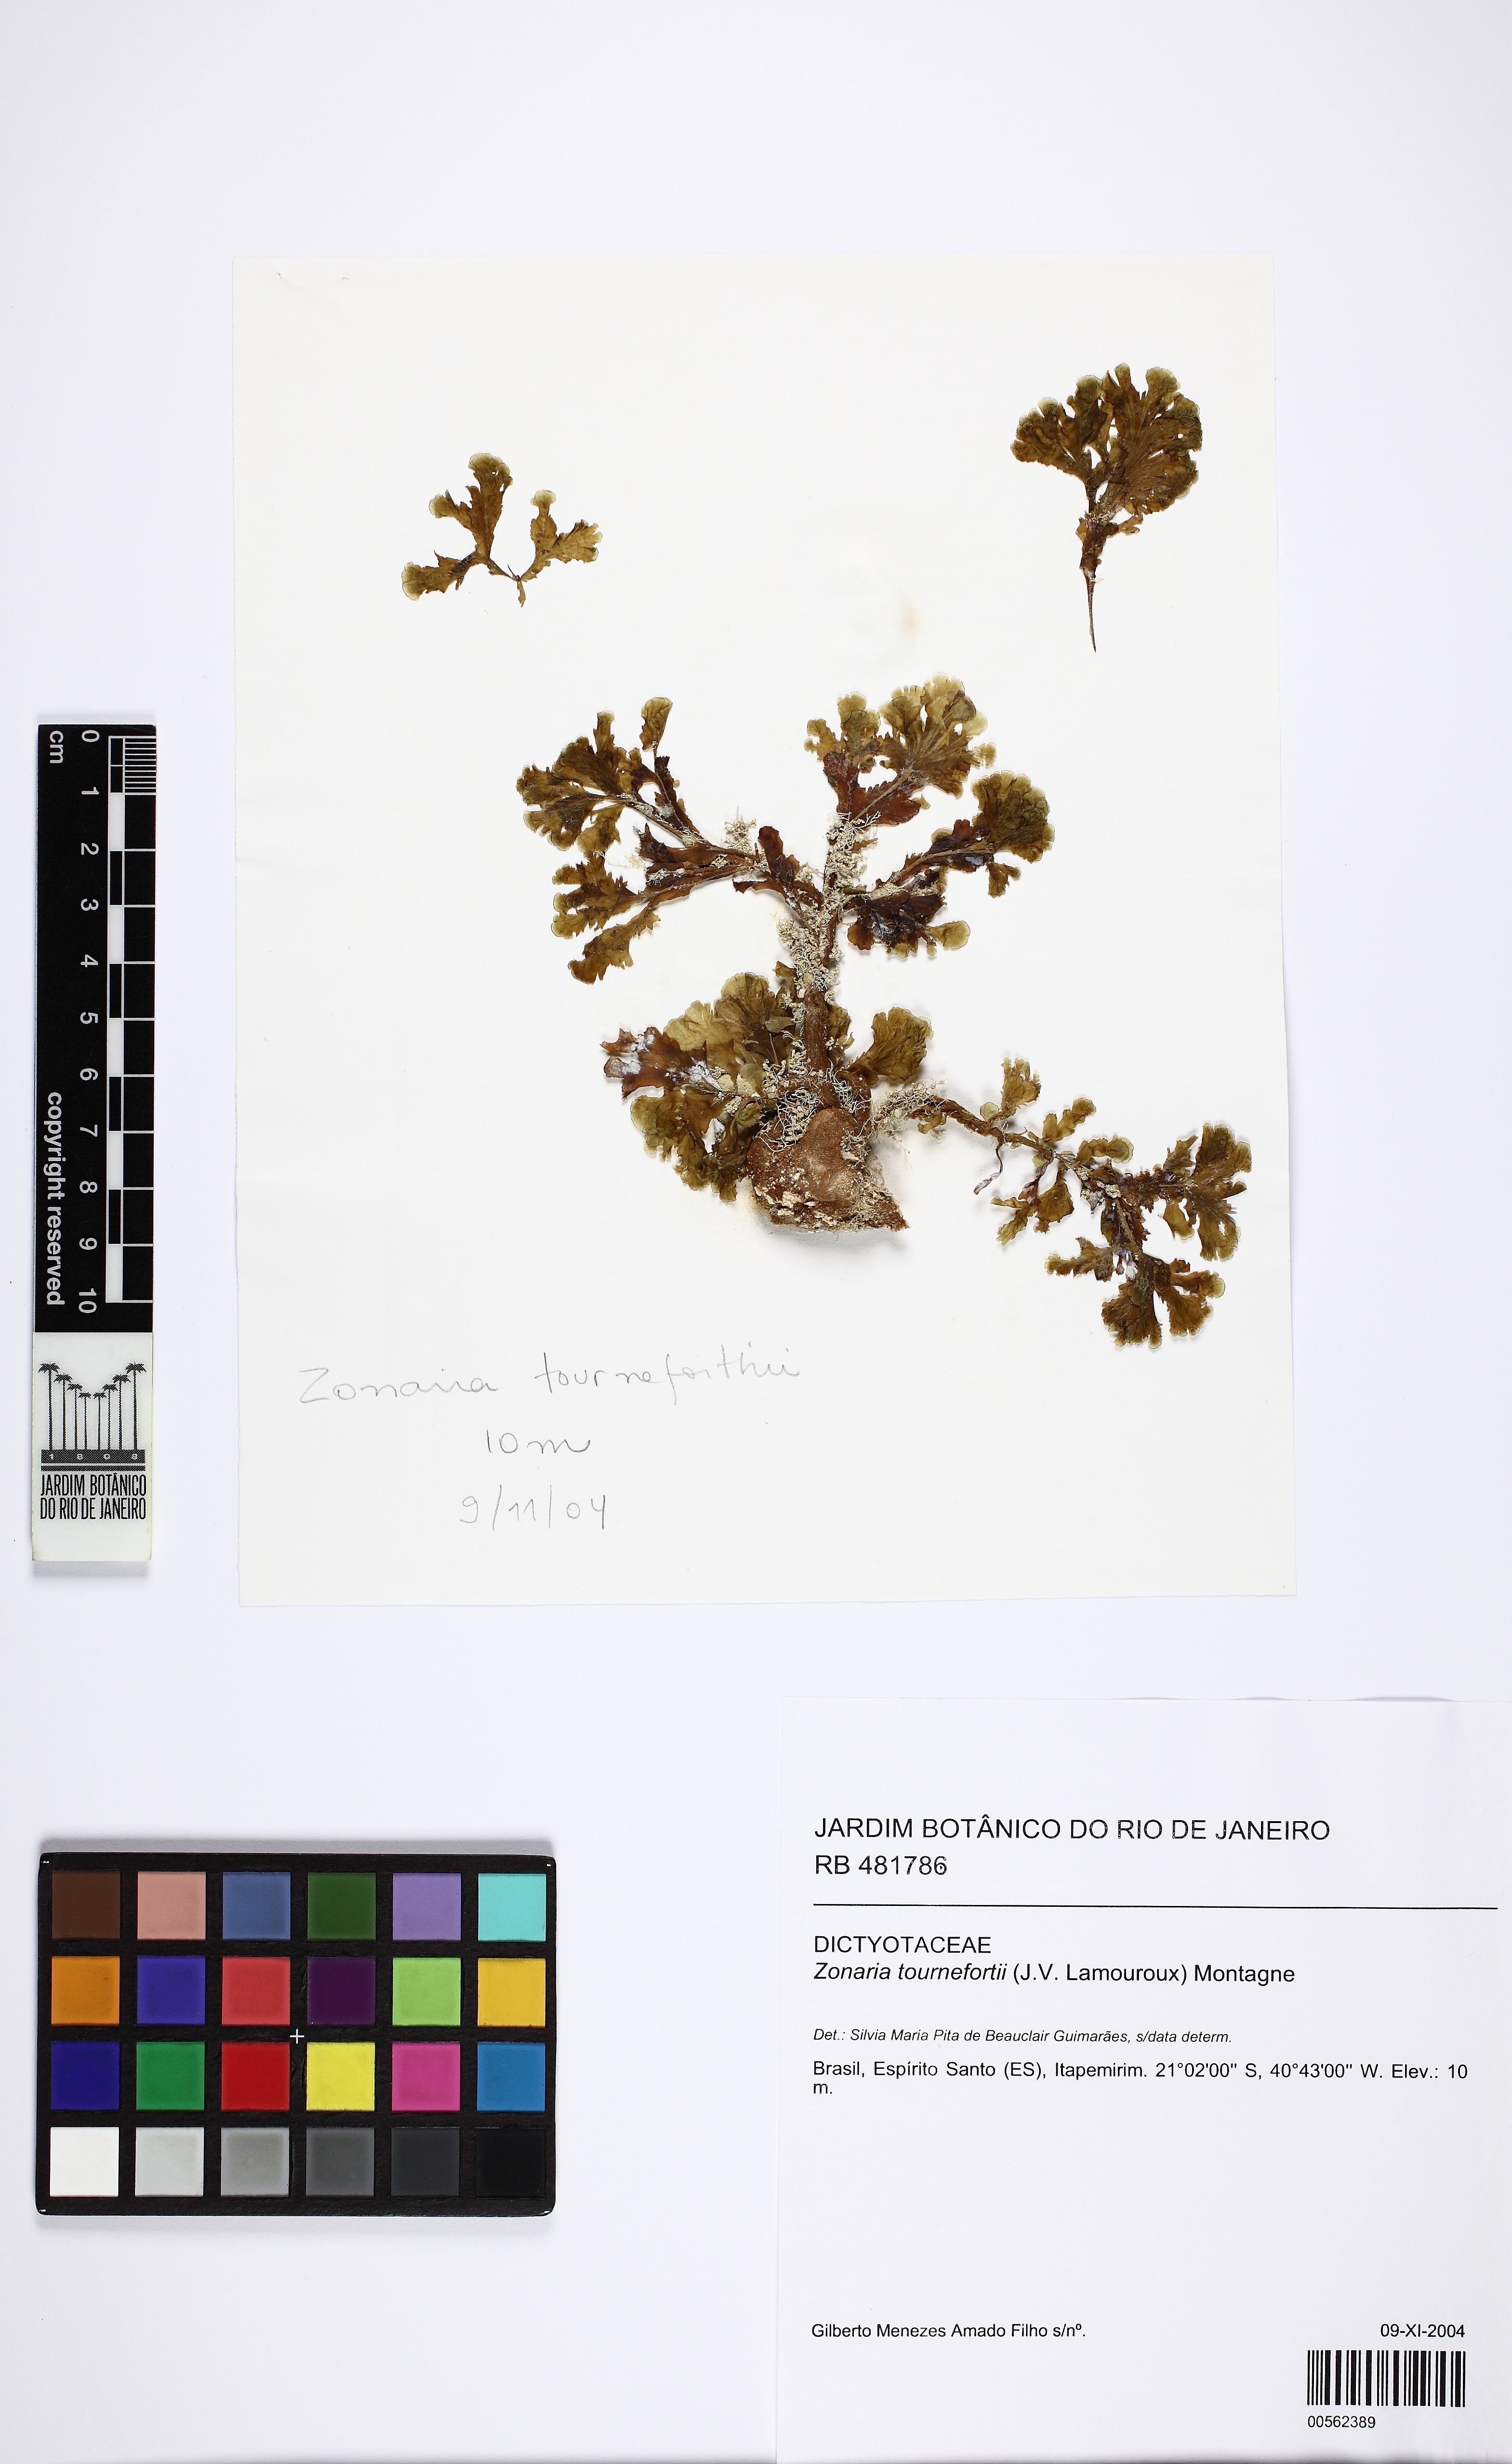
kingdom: Chromista
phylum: Ochrophyta
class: Phaeophyceae
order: Dictyotales
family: Dictyotaceae
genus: Zonaria
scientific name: Zonaria tournefortii
